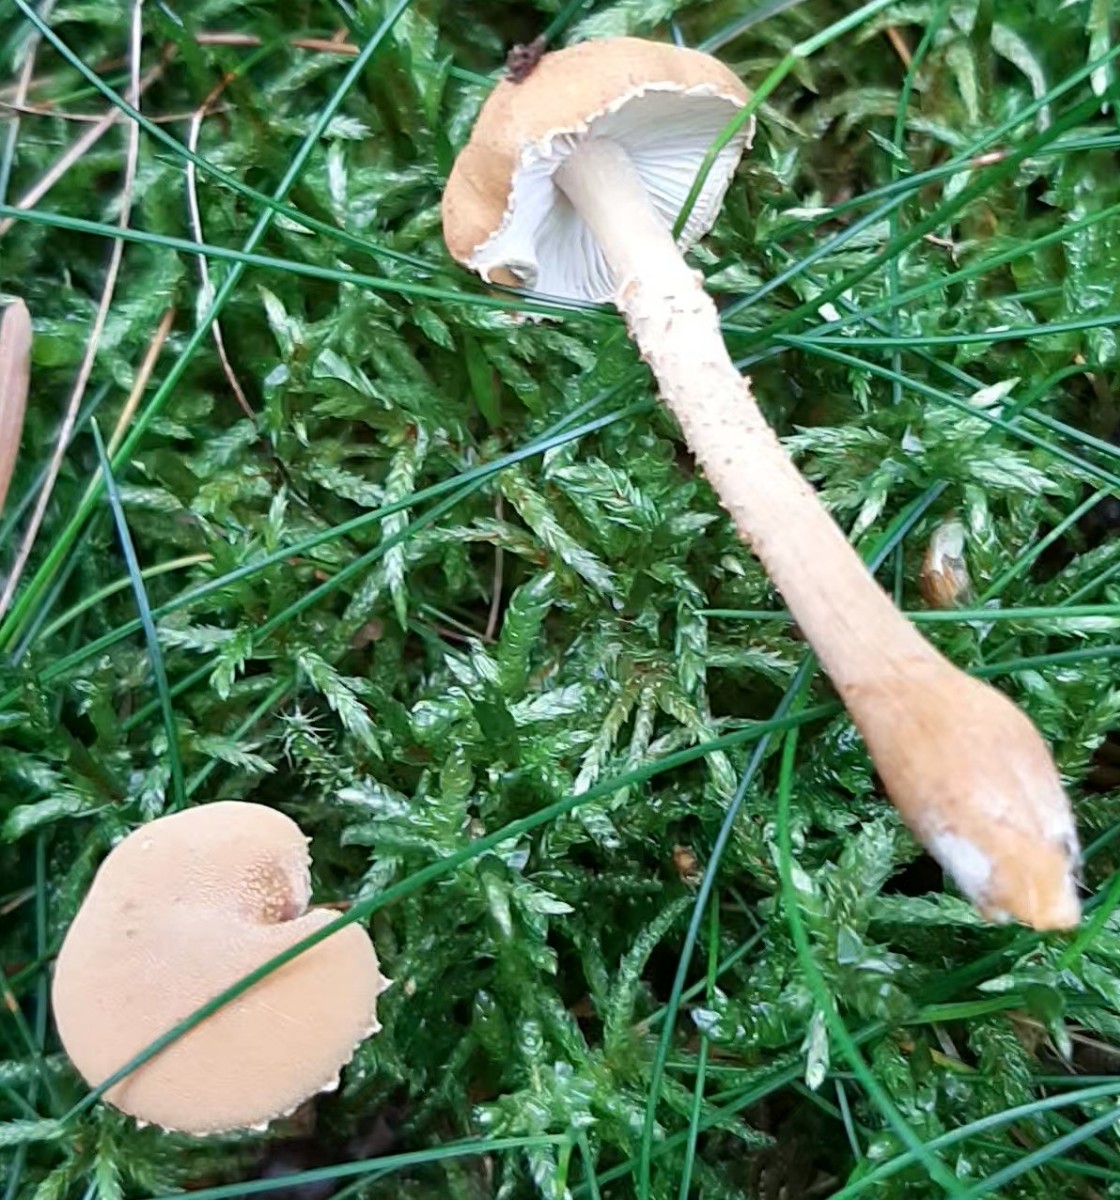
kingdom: Fungi
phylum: Basidiomycota
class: Agaricomycetes
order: Agaricales
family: Tricholomataceae
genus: Cystoderma
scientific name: Cystoderma amianthinum
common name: okkergul grynhat
